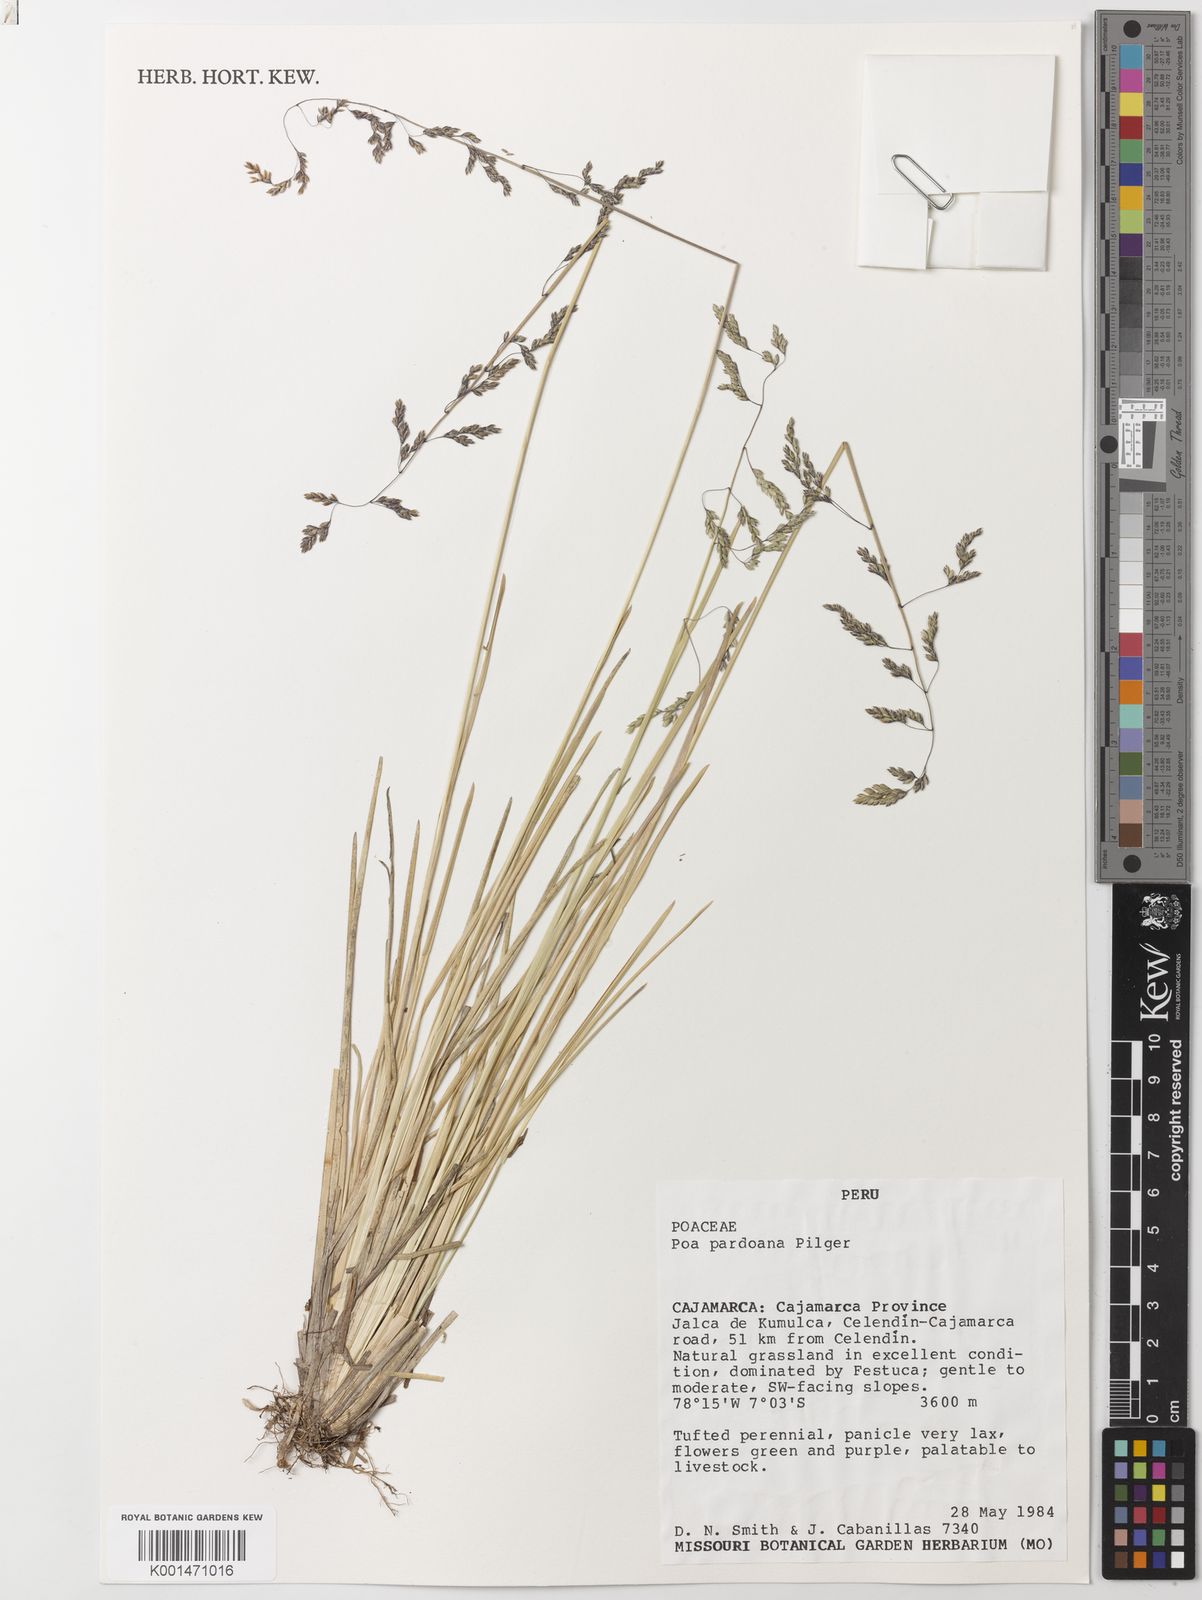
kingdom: Plantae
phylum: Tracheophyta
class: Liliopsida
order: Poales
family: Poaceae
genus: Poa
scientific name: Poa pauciflora
